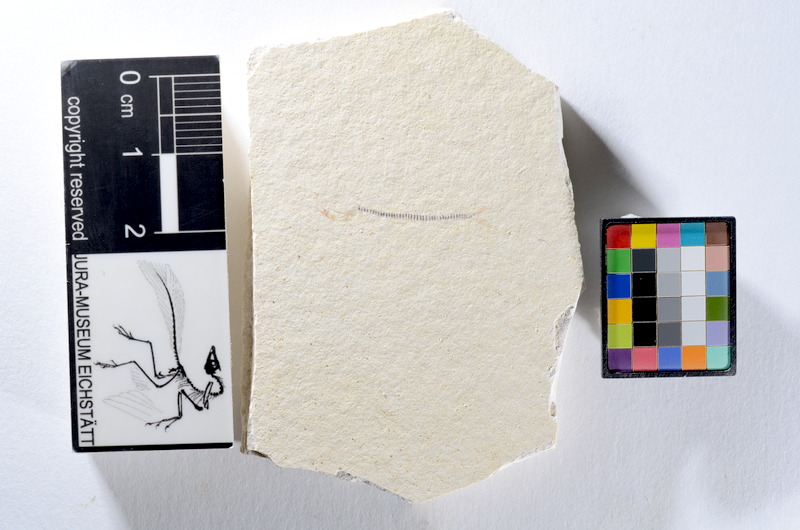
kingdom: Animalia
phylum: Chordata
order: Salmoniformes
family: Orthogonikleithridae
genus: Orthogonikleithrus
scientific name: Orthogonikleithrus hoelli
